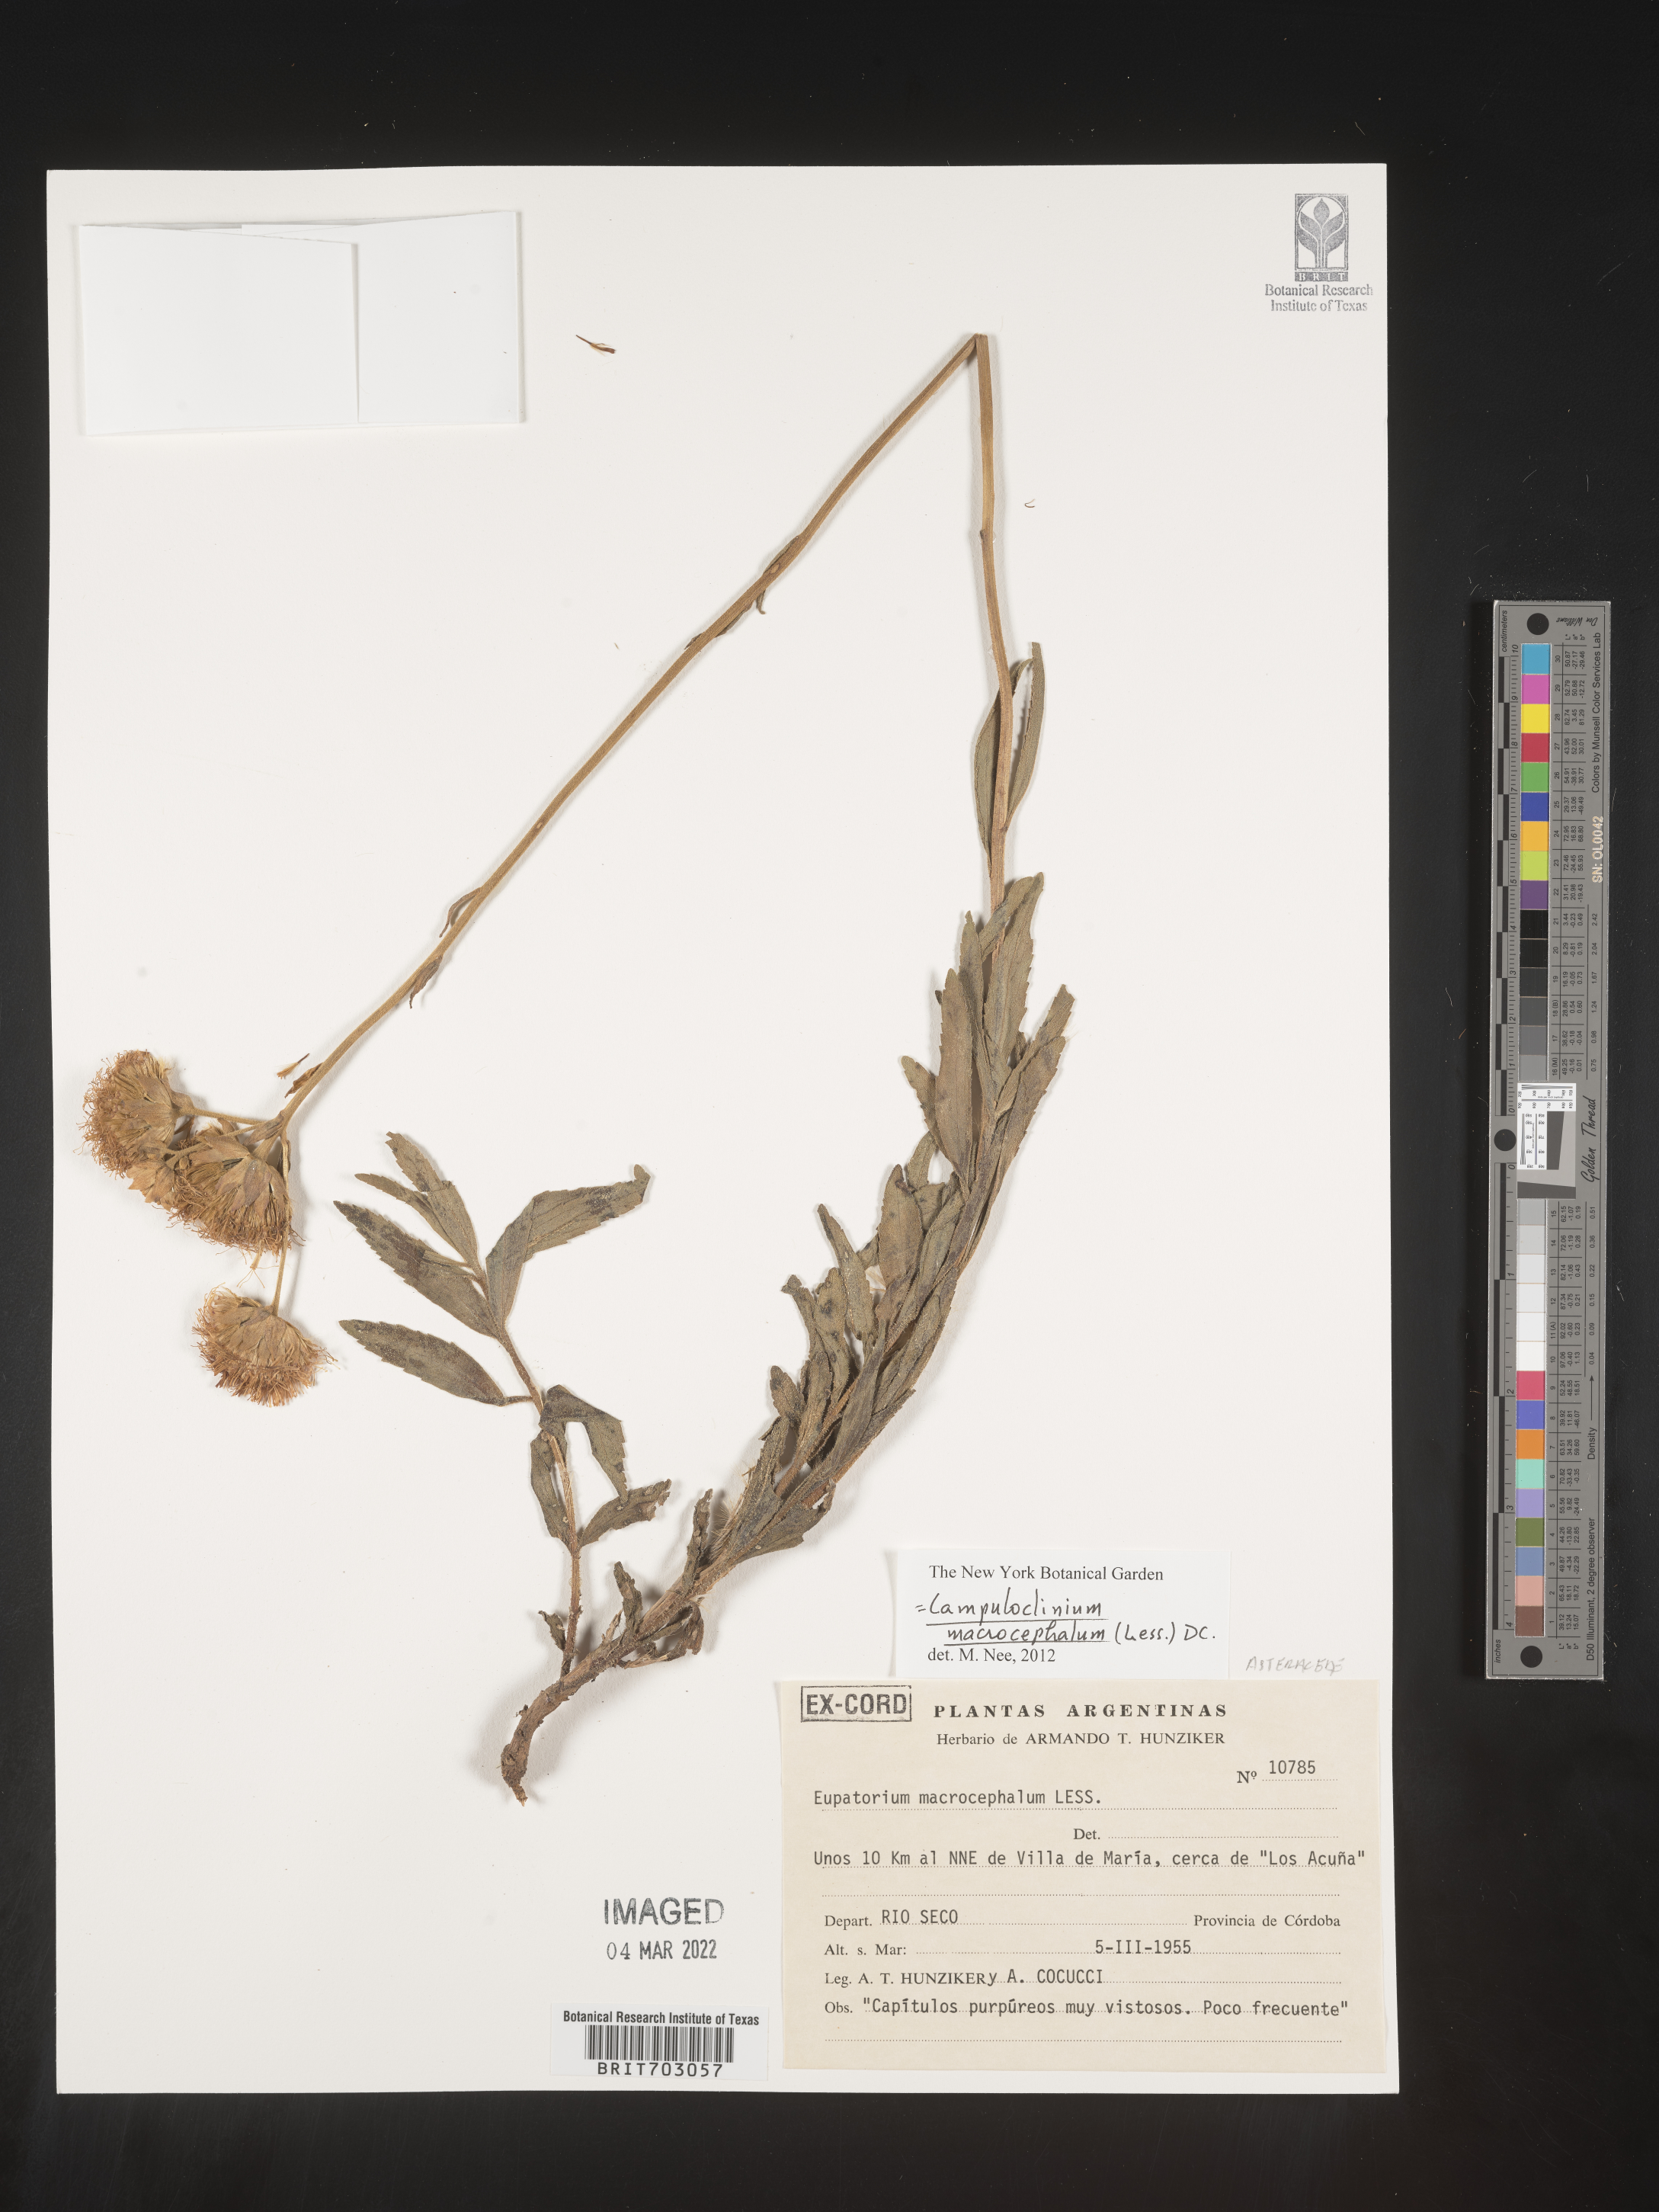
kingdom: Plantae
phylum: Tracheophyta
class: Magnoliopsida
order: Asterales
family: Asteraceae
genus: Eupatorium
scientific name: Eupatorium
